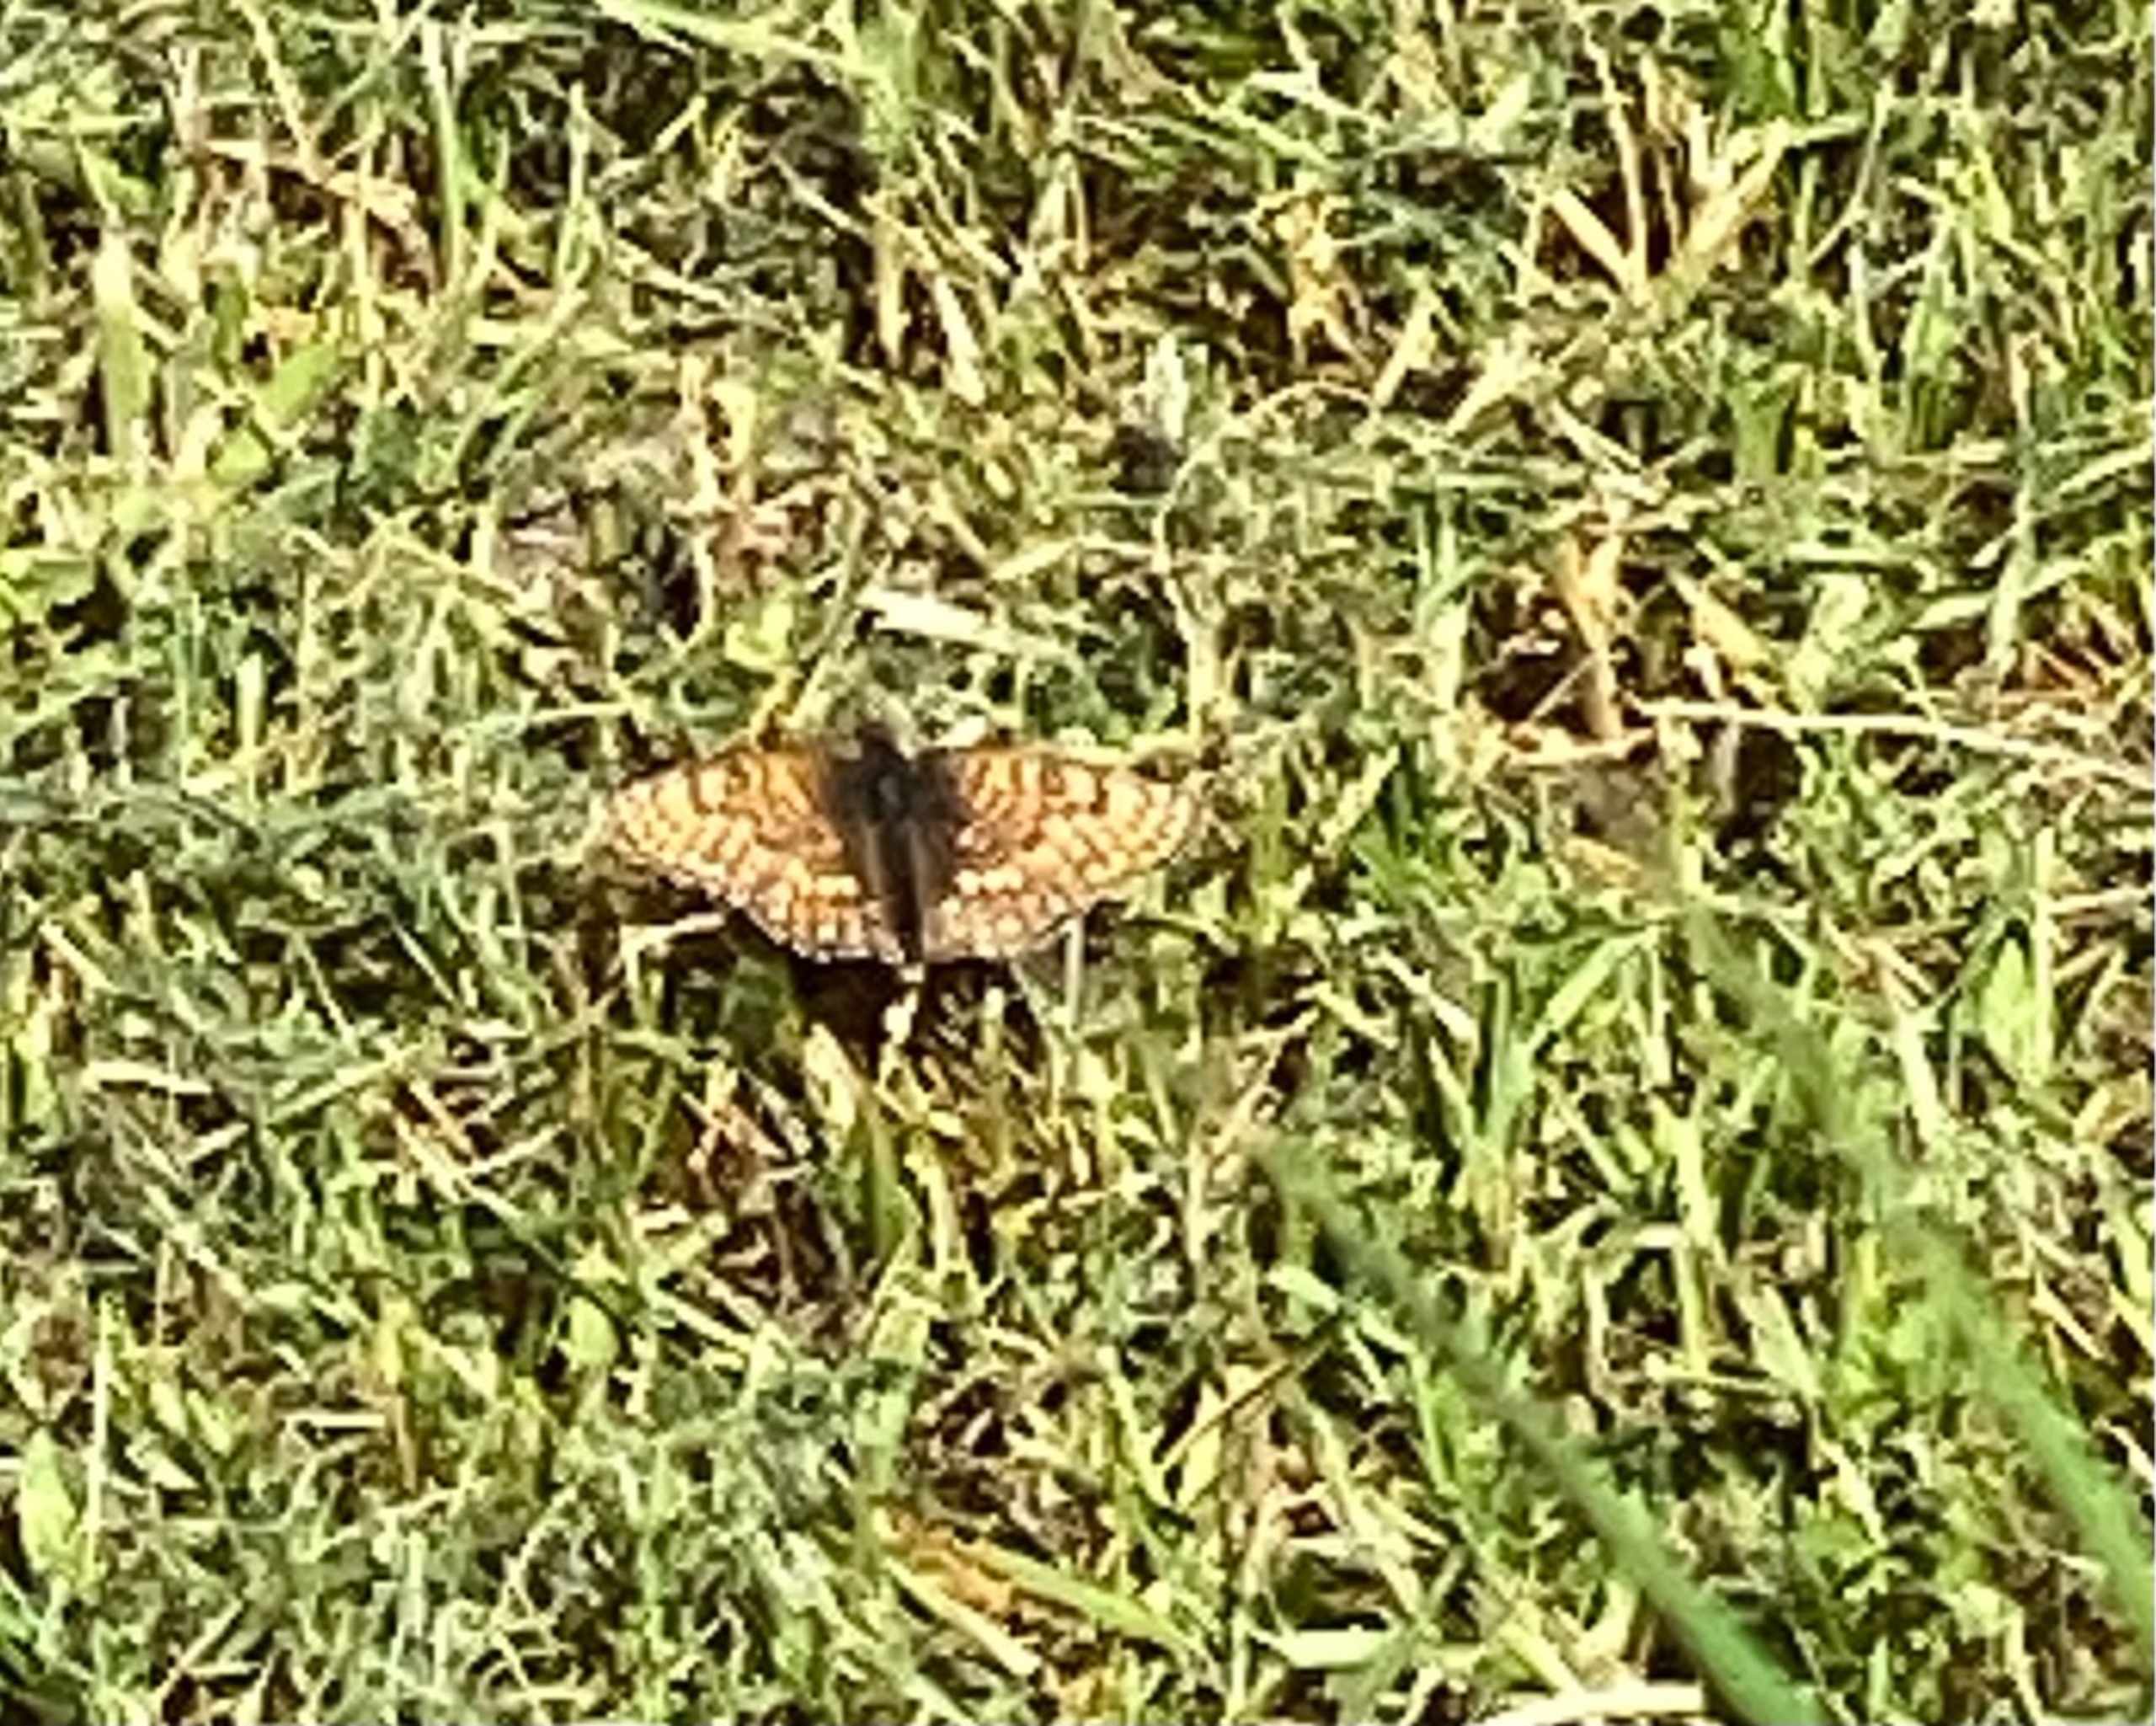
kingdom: Animalia
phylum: Arthropoda
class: Insecta
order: Lepidoptera
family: Nymphalidae
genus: Melitaea
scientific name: Melitaea cinxia
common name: Okkergul pletvinge
